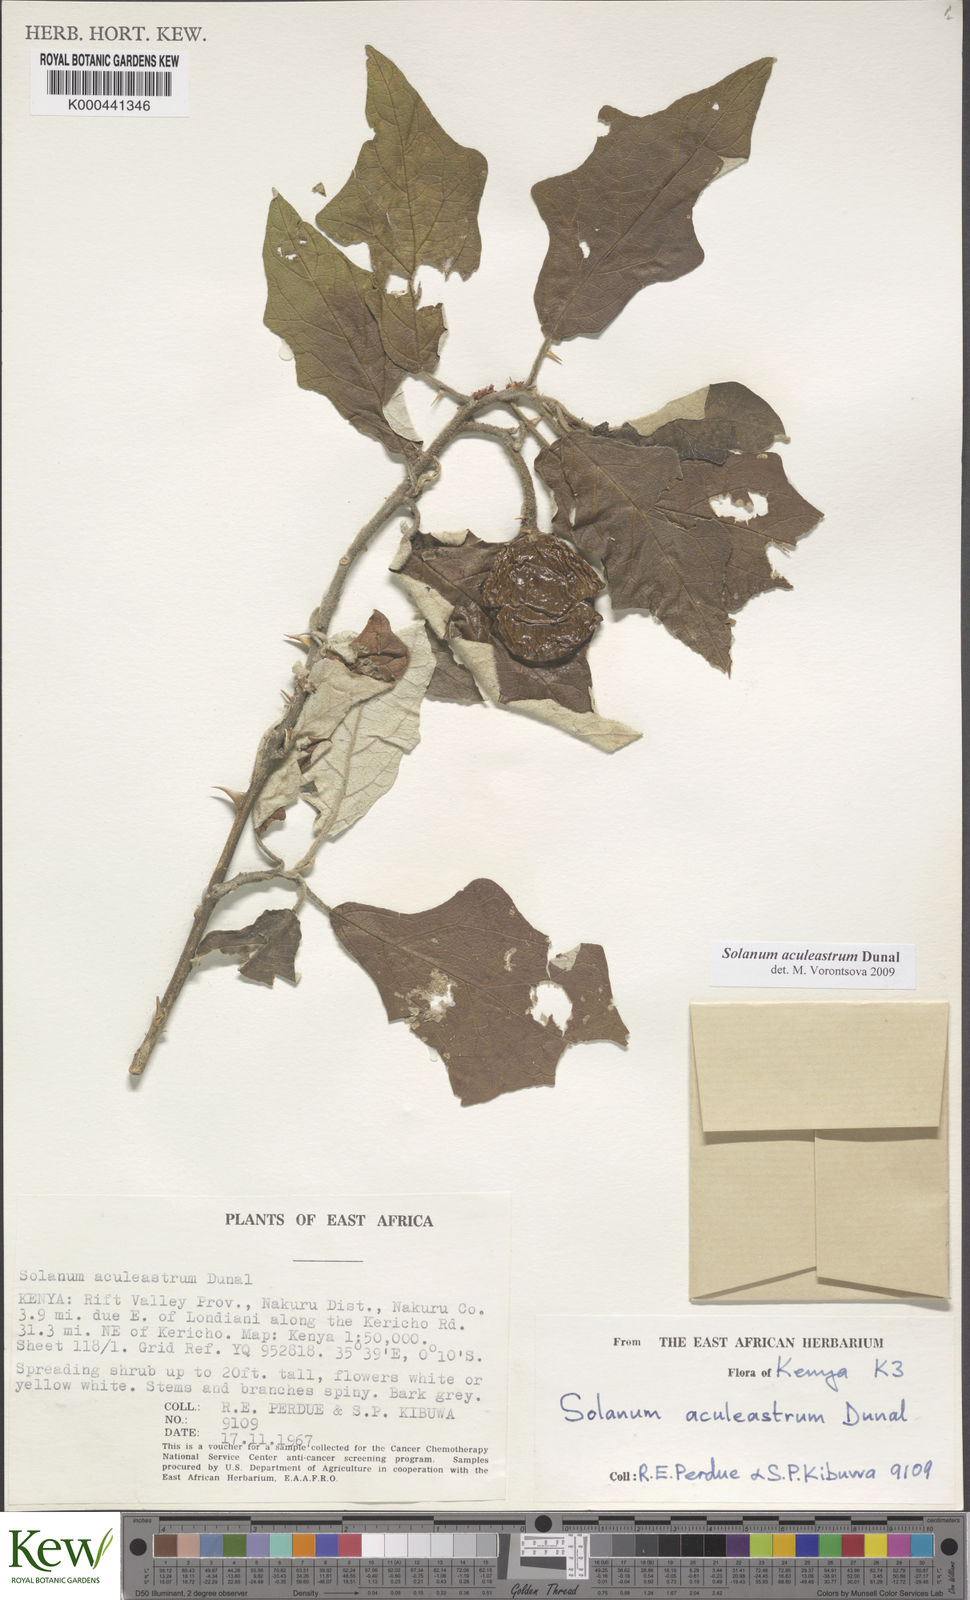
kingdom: Plantae
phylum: Tracheophyta
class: Magnoliopsida
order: Solanales
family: Solanaceae
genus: Solanum
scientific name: Solanum aculeastrum
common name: Goat bitter-apple
